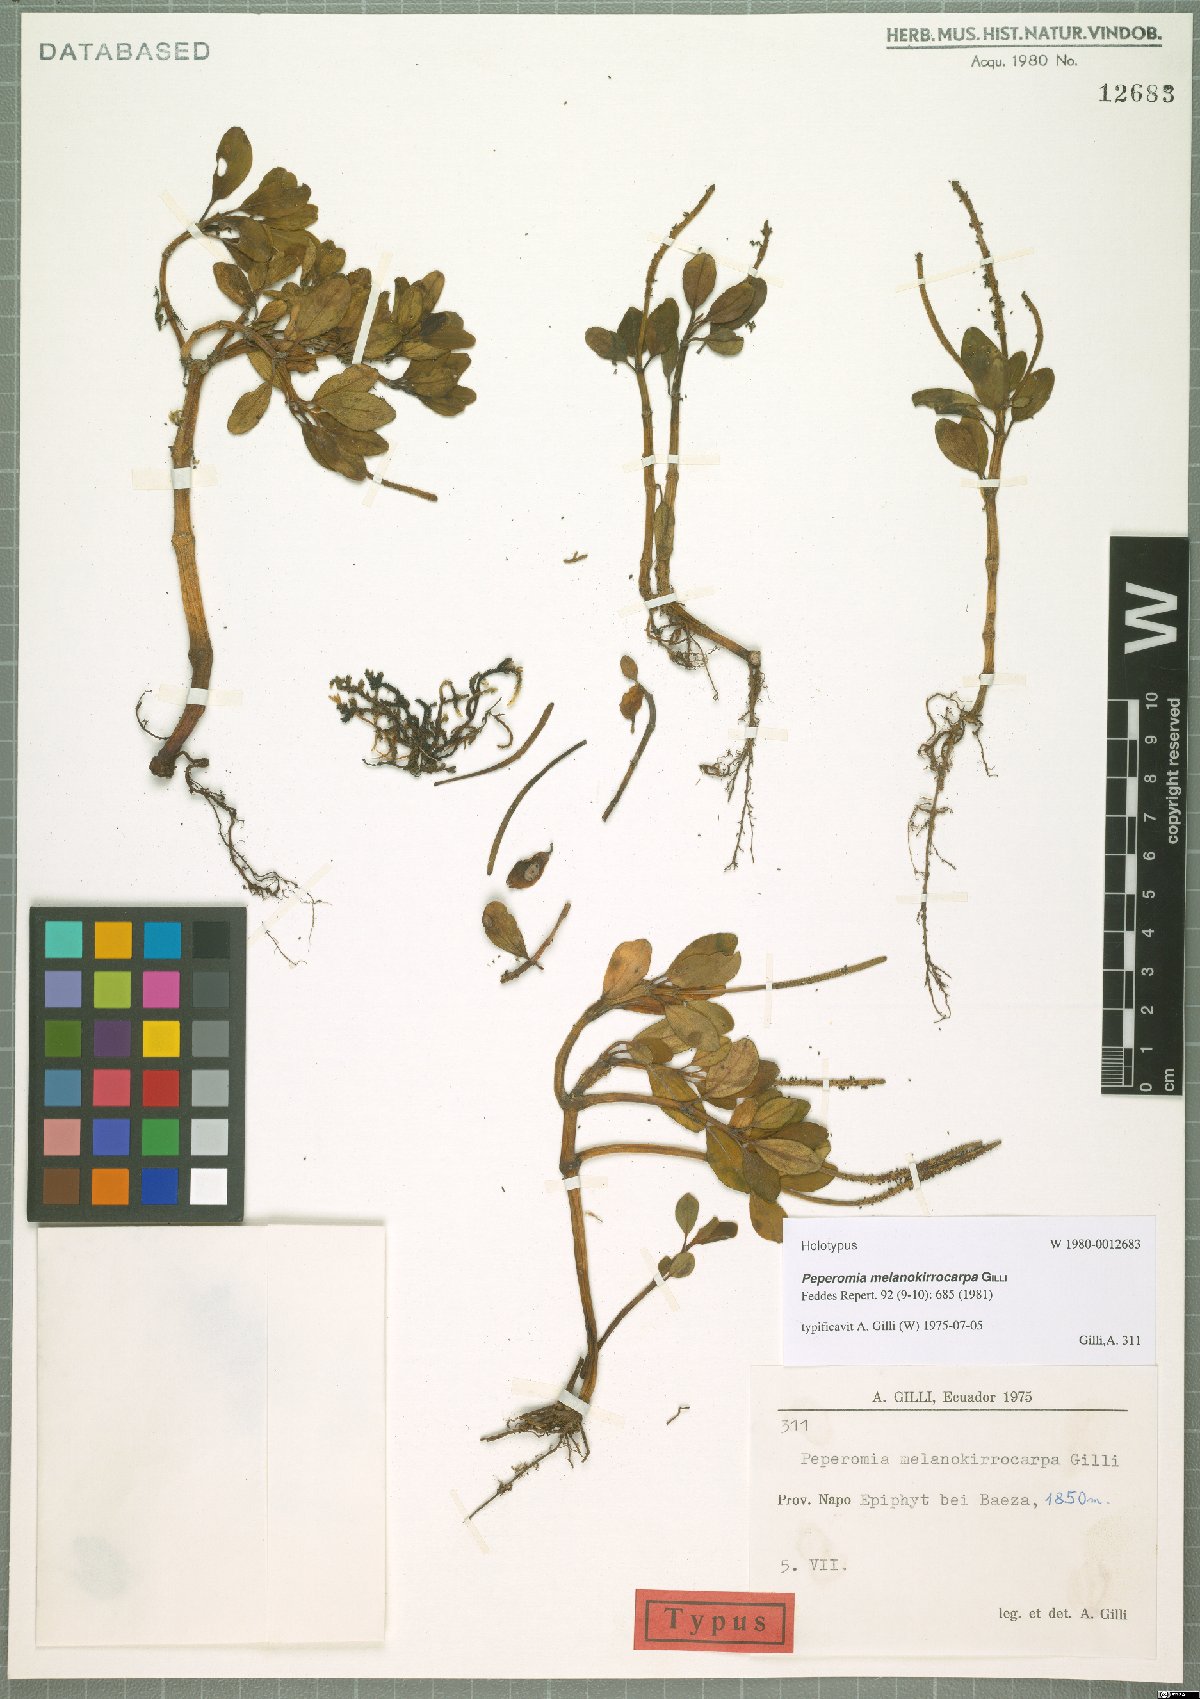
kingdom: Plantae
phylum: Tracheophyta
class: Magnoliopsida
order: Piperales
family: Piperaceae
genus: Peperomia
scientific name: Peperomia melanokirrocarpa
